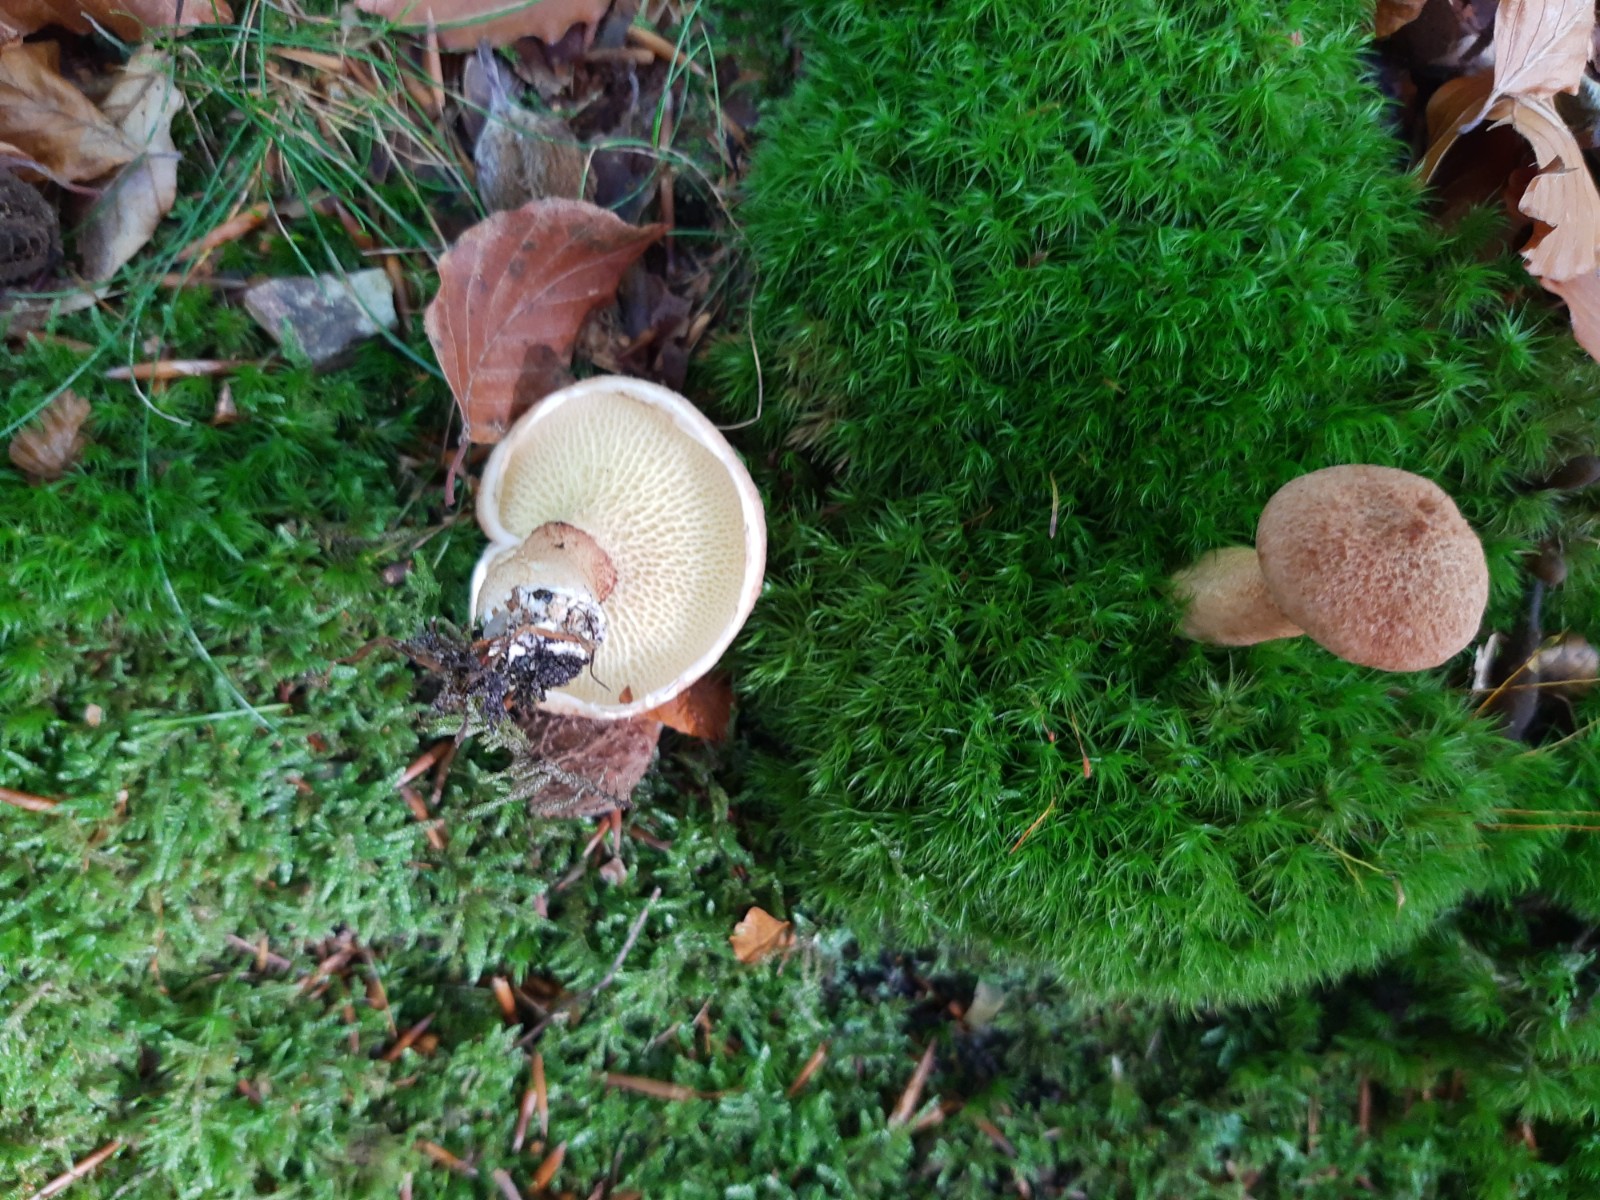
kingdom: Fungi
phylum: Basidiomycota
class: Agaricomycetes
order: Boletales
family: Suillaceae
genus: Suillus
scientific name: Suillus cavipes
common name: hulstokket slimrørhat
